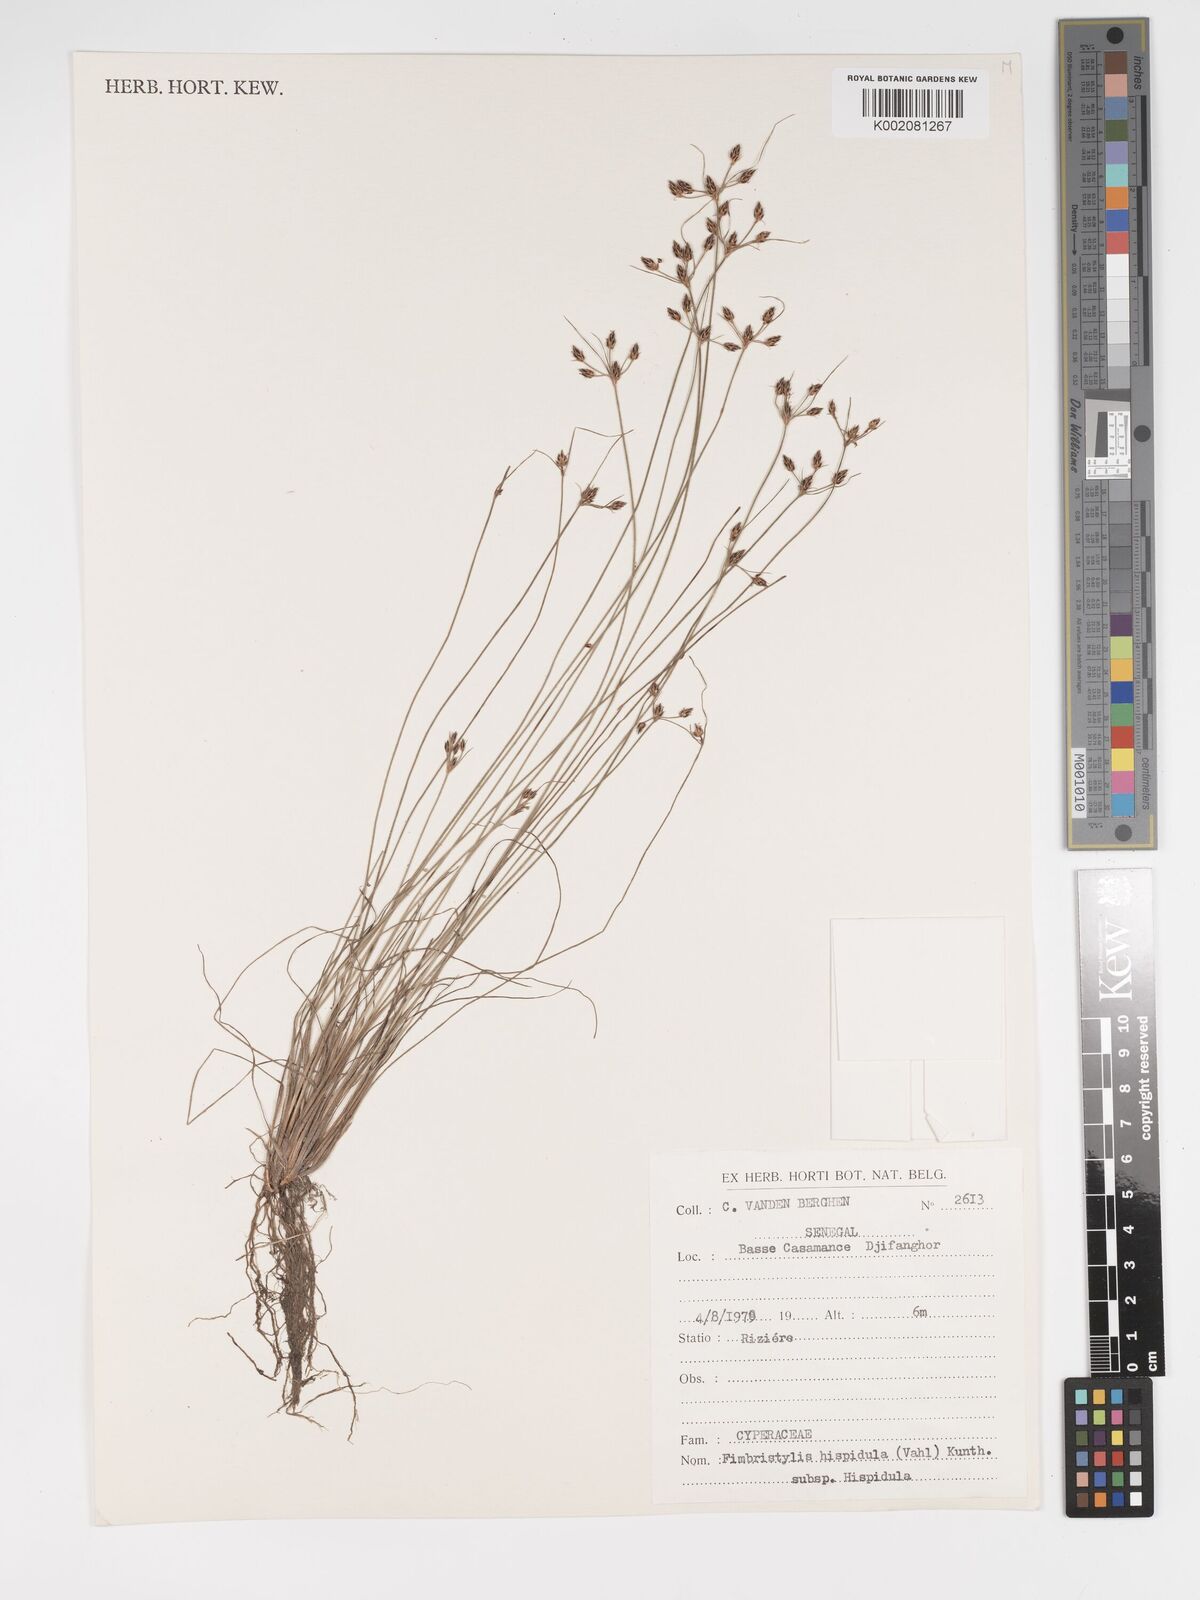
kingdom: Plantae
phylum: Tracheophyta
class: Liliopsida
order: Poales
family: Cyperaceae
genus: Bulbostylis
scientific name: Bulbostylis hispidula
